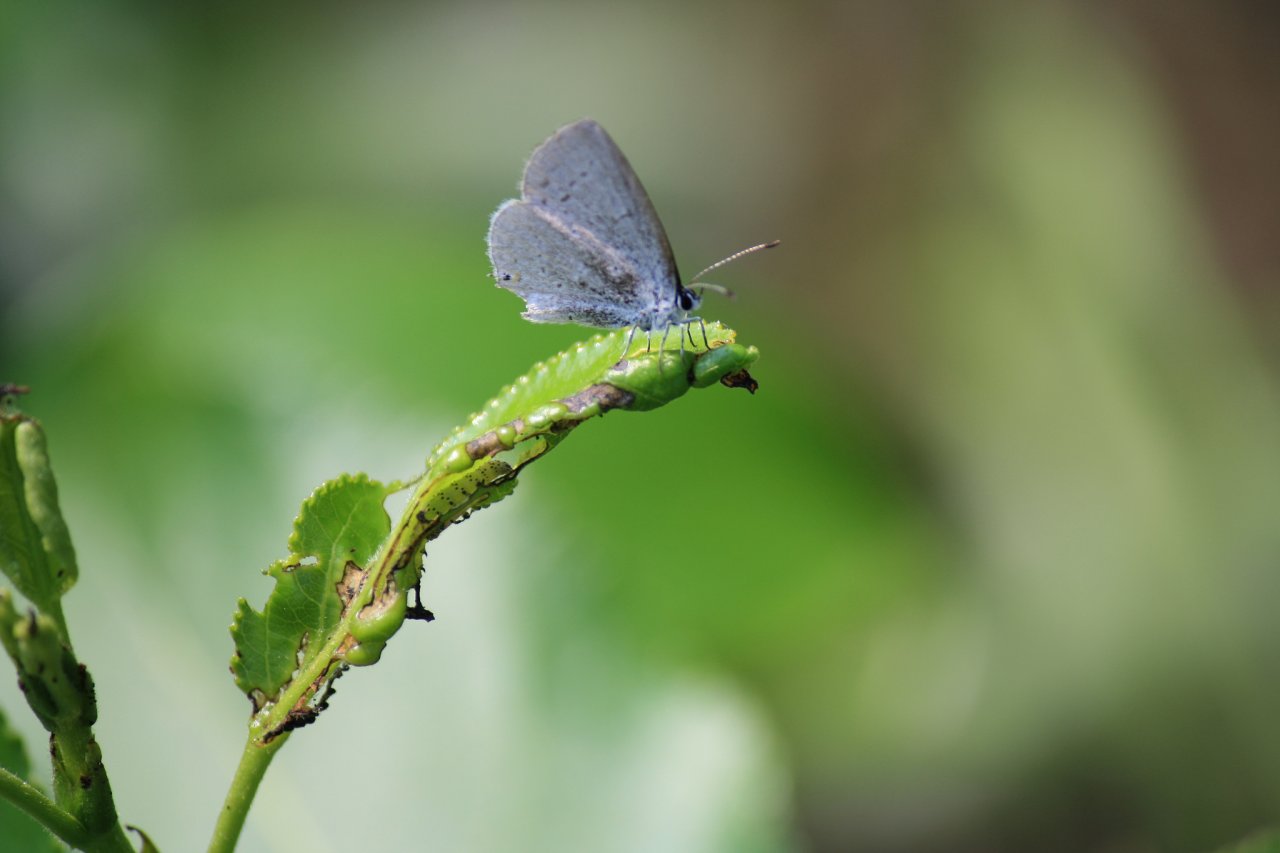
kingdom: Animalia
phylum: Arthropoda
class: Insecta
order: Lepidoptera
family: Lycaenidae
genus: Elkalyce
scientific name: Elkalyce amyntula
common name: Western Tailed-Blue
